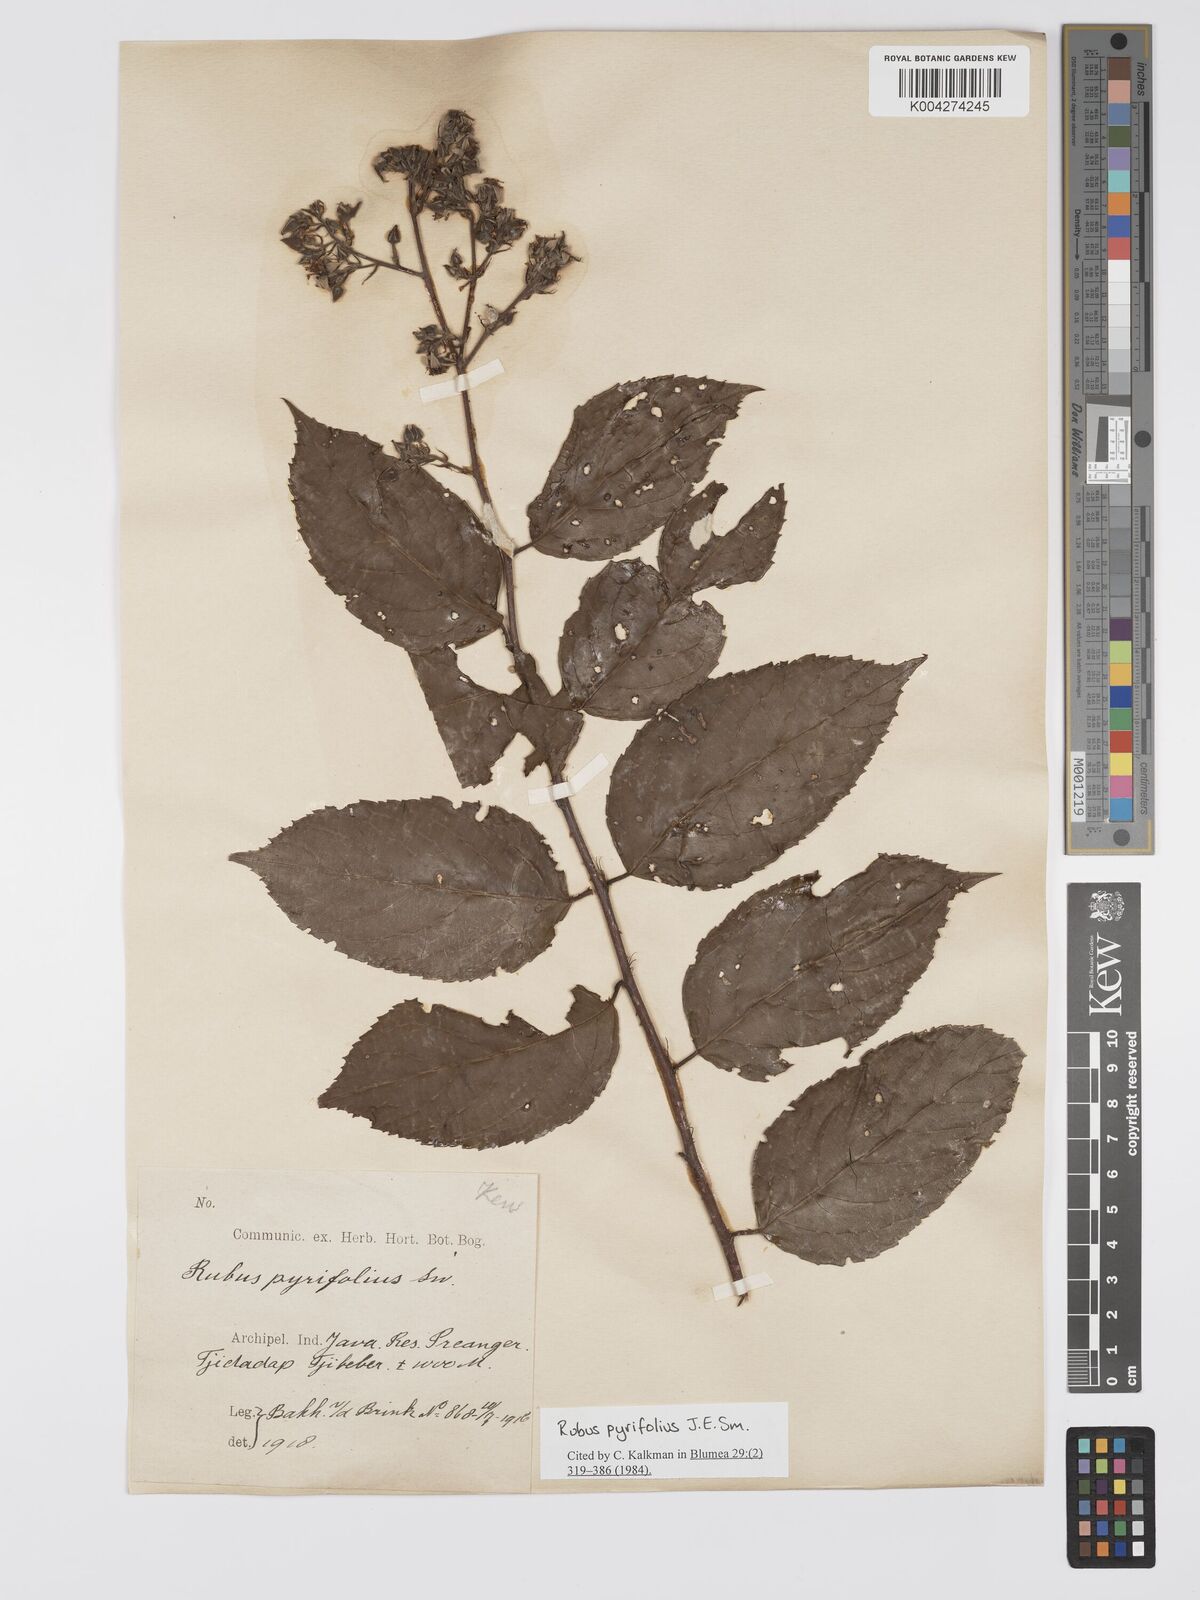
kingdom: Plantae
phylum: Tracheophyta
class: Magnoliopsida
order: Rosales
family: Rosaceae
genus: Rubus
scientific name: Rubus pirifolius
